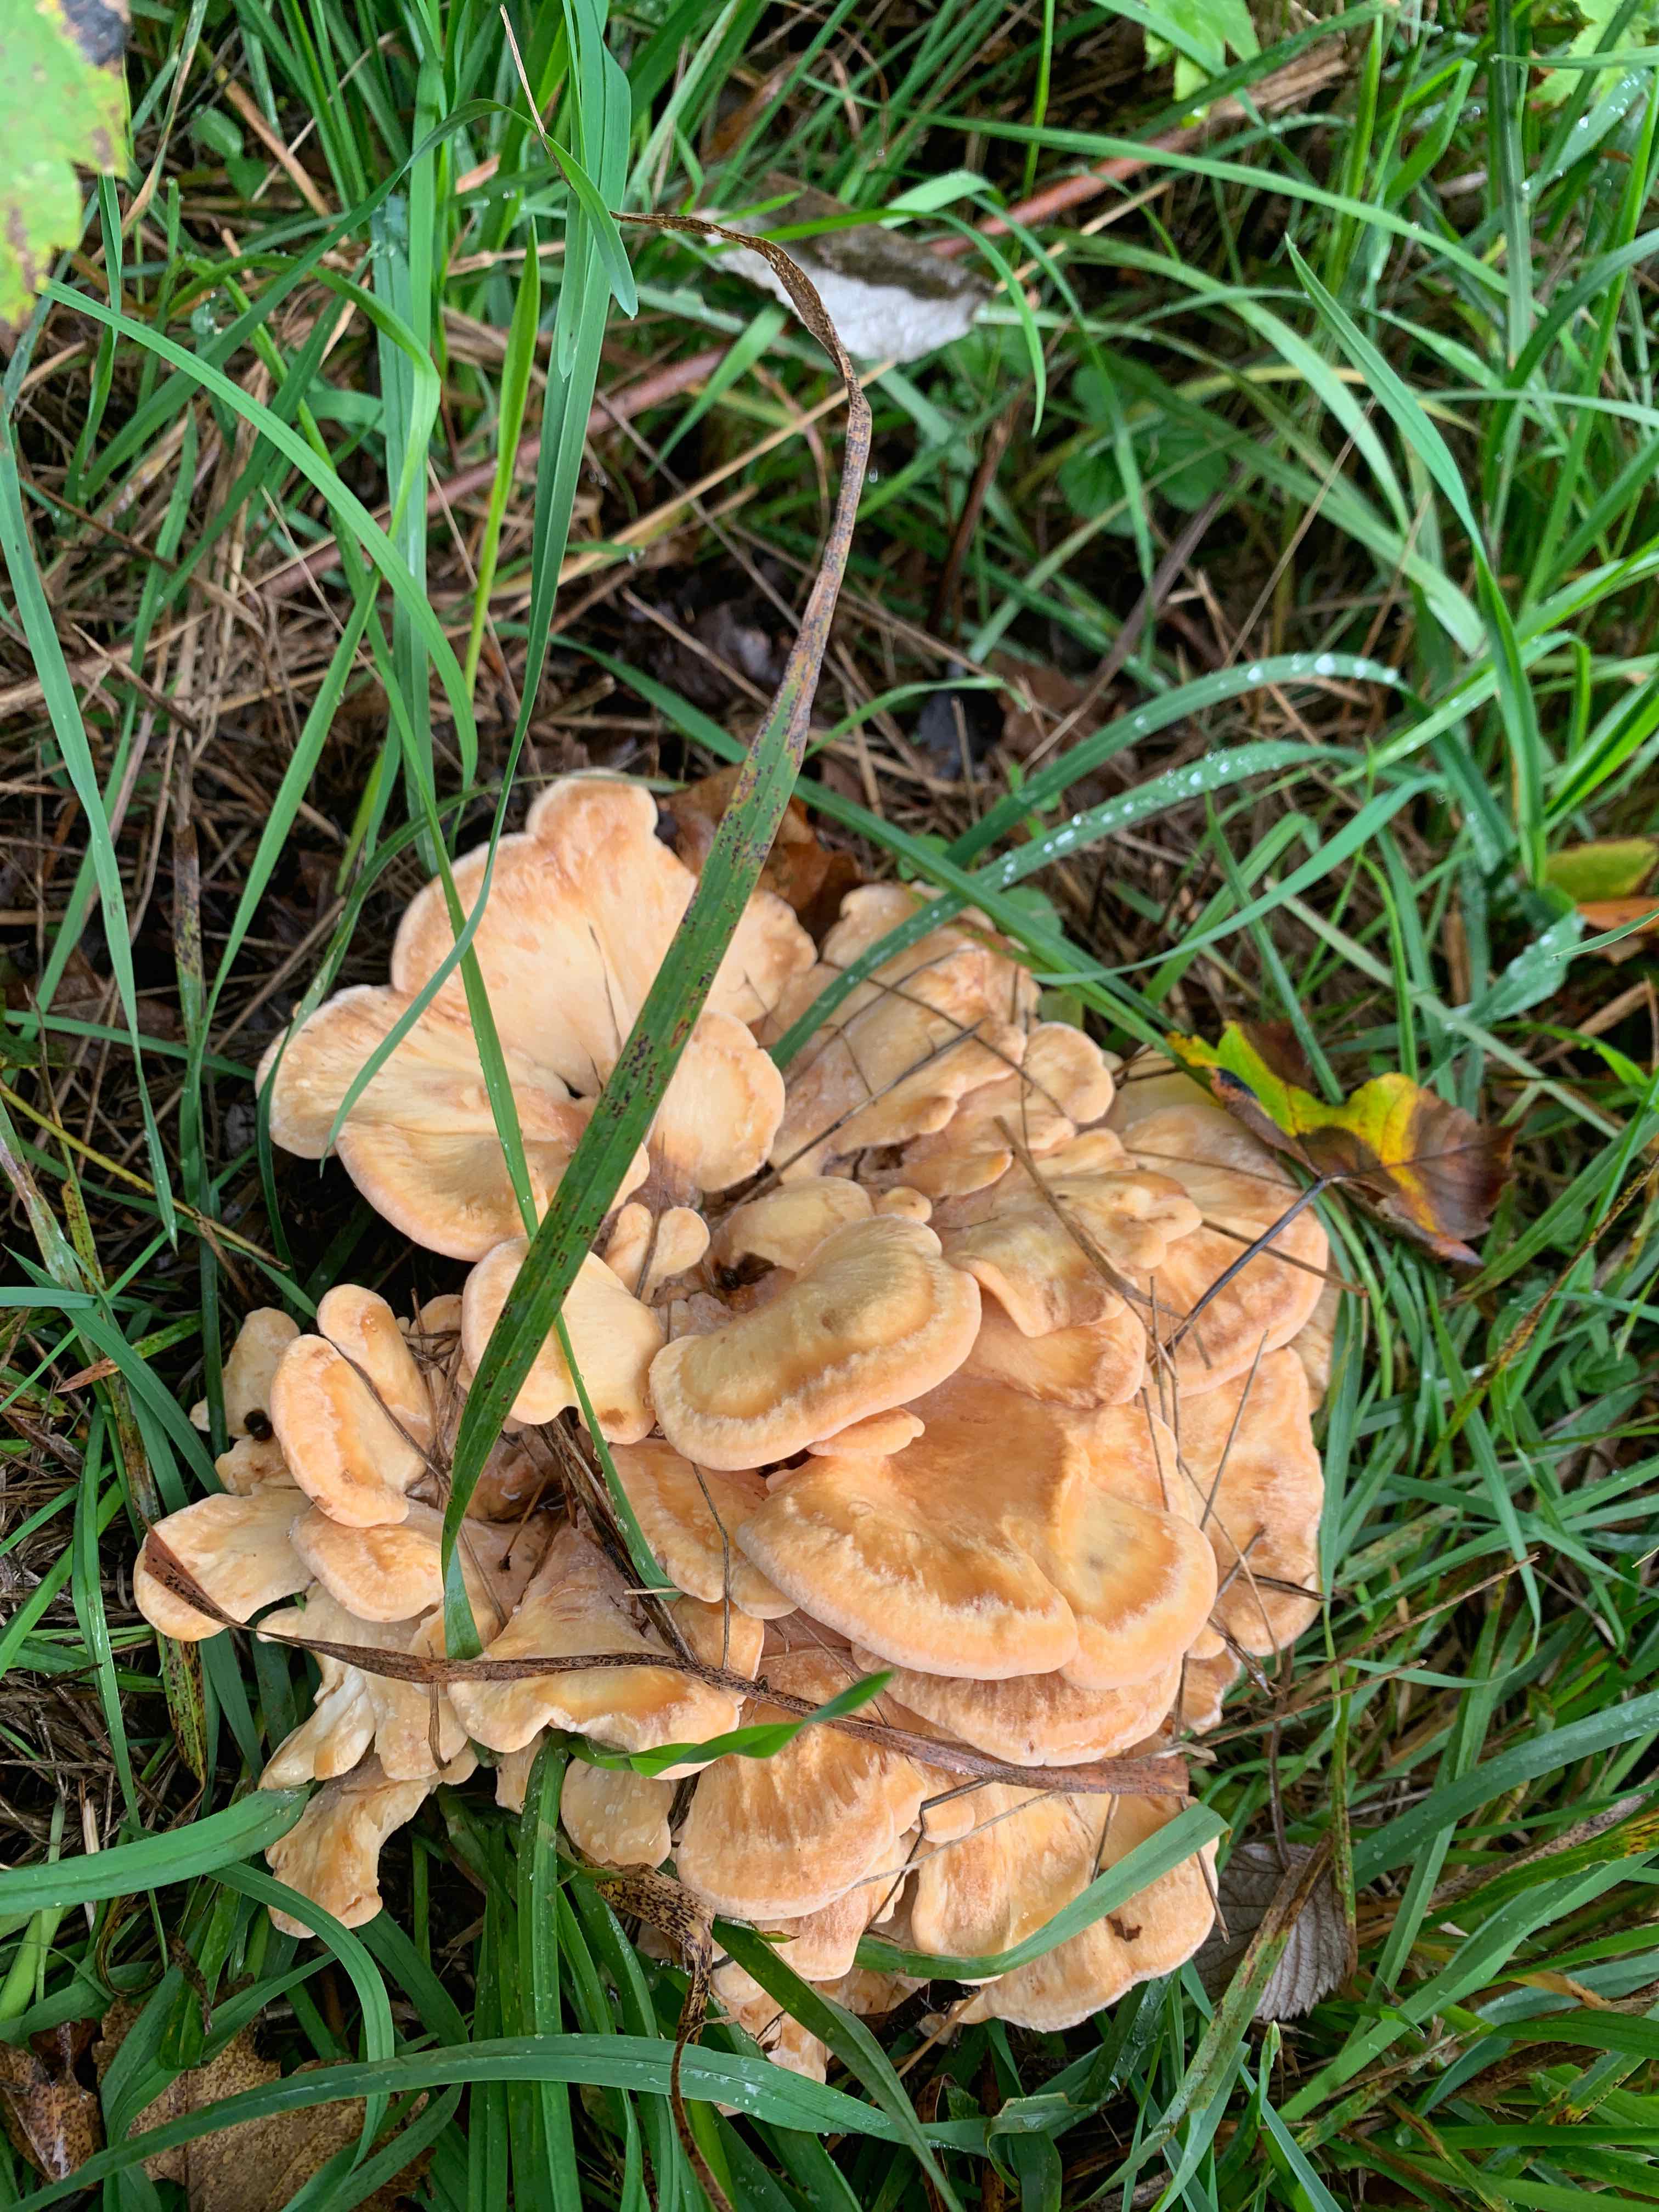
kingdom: Fungi
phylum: Basidiomycota
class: Agaricomycetes
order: Polyporales
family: Meripilaceae
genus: Meripilus
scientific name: Meripilus giganteus
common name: kæmpeporesvamp
